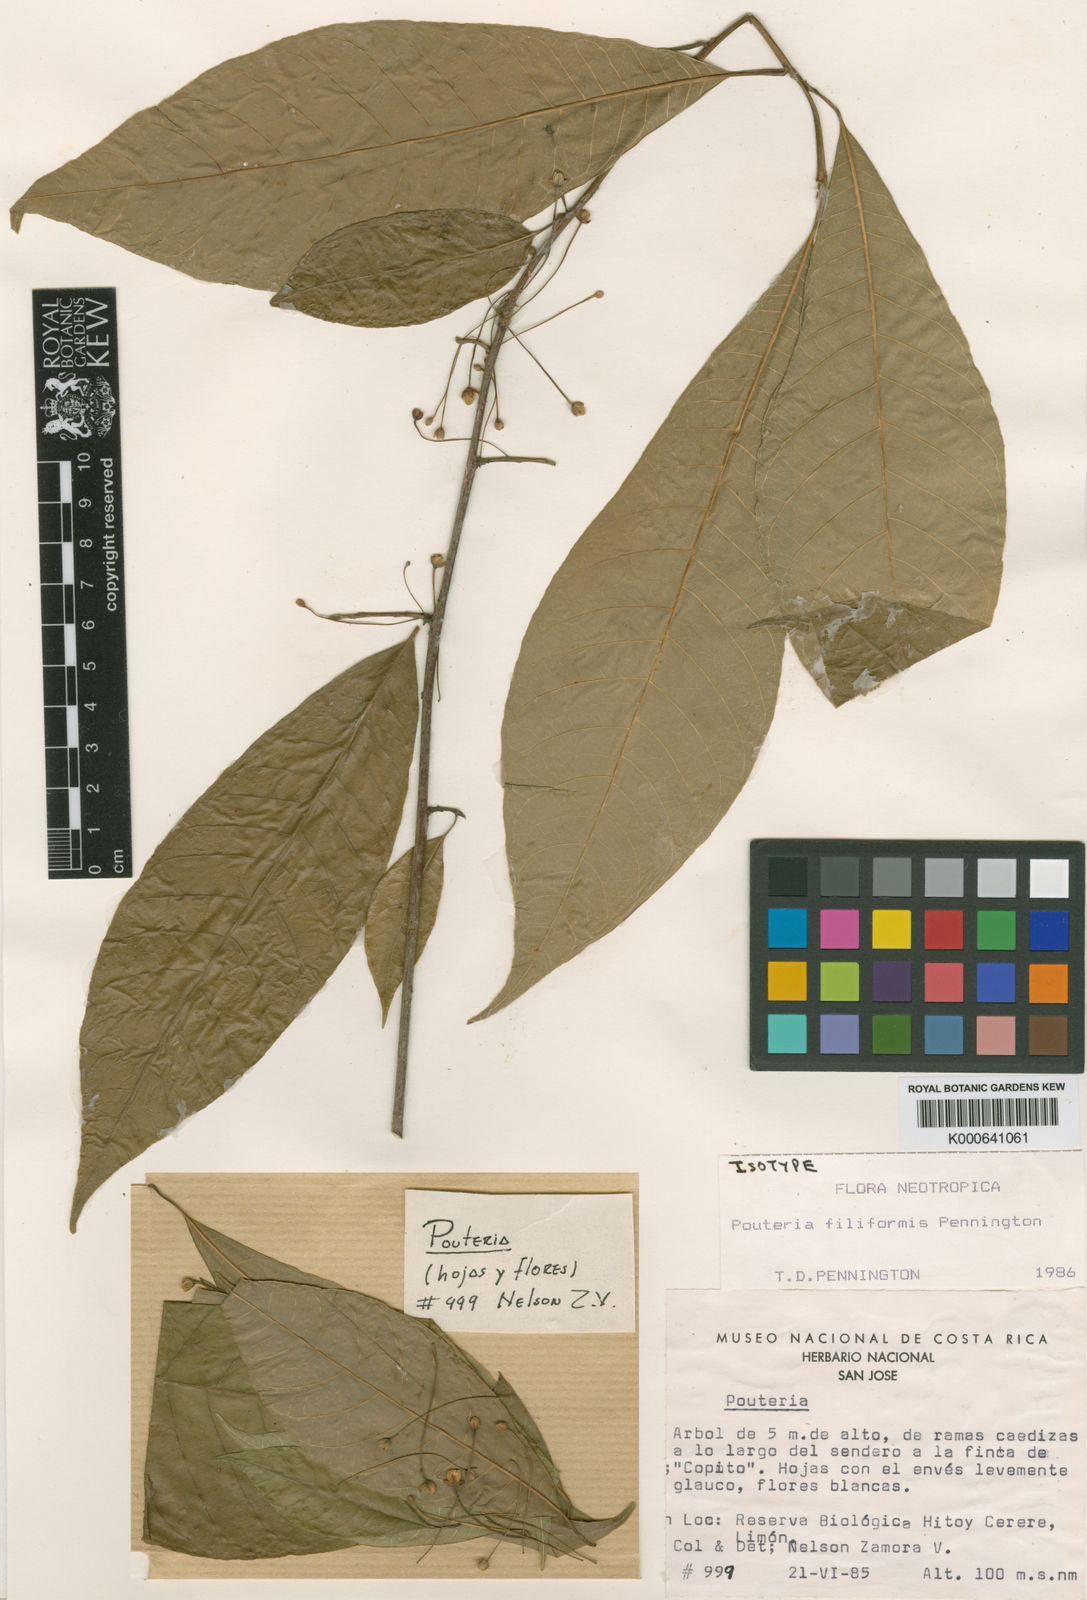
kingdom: Plantae
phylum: Tracheophyta
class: Magnoliopsida
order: Ericales
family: Sapotaceae
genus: Pouteria
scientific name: Pouteria filiformis
